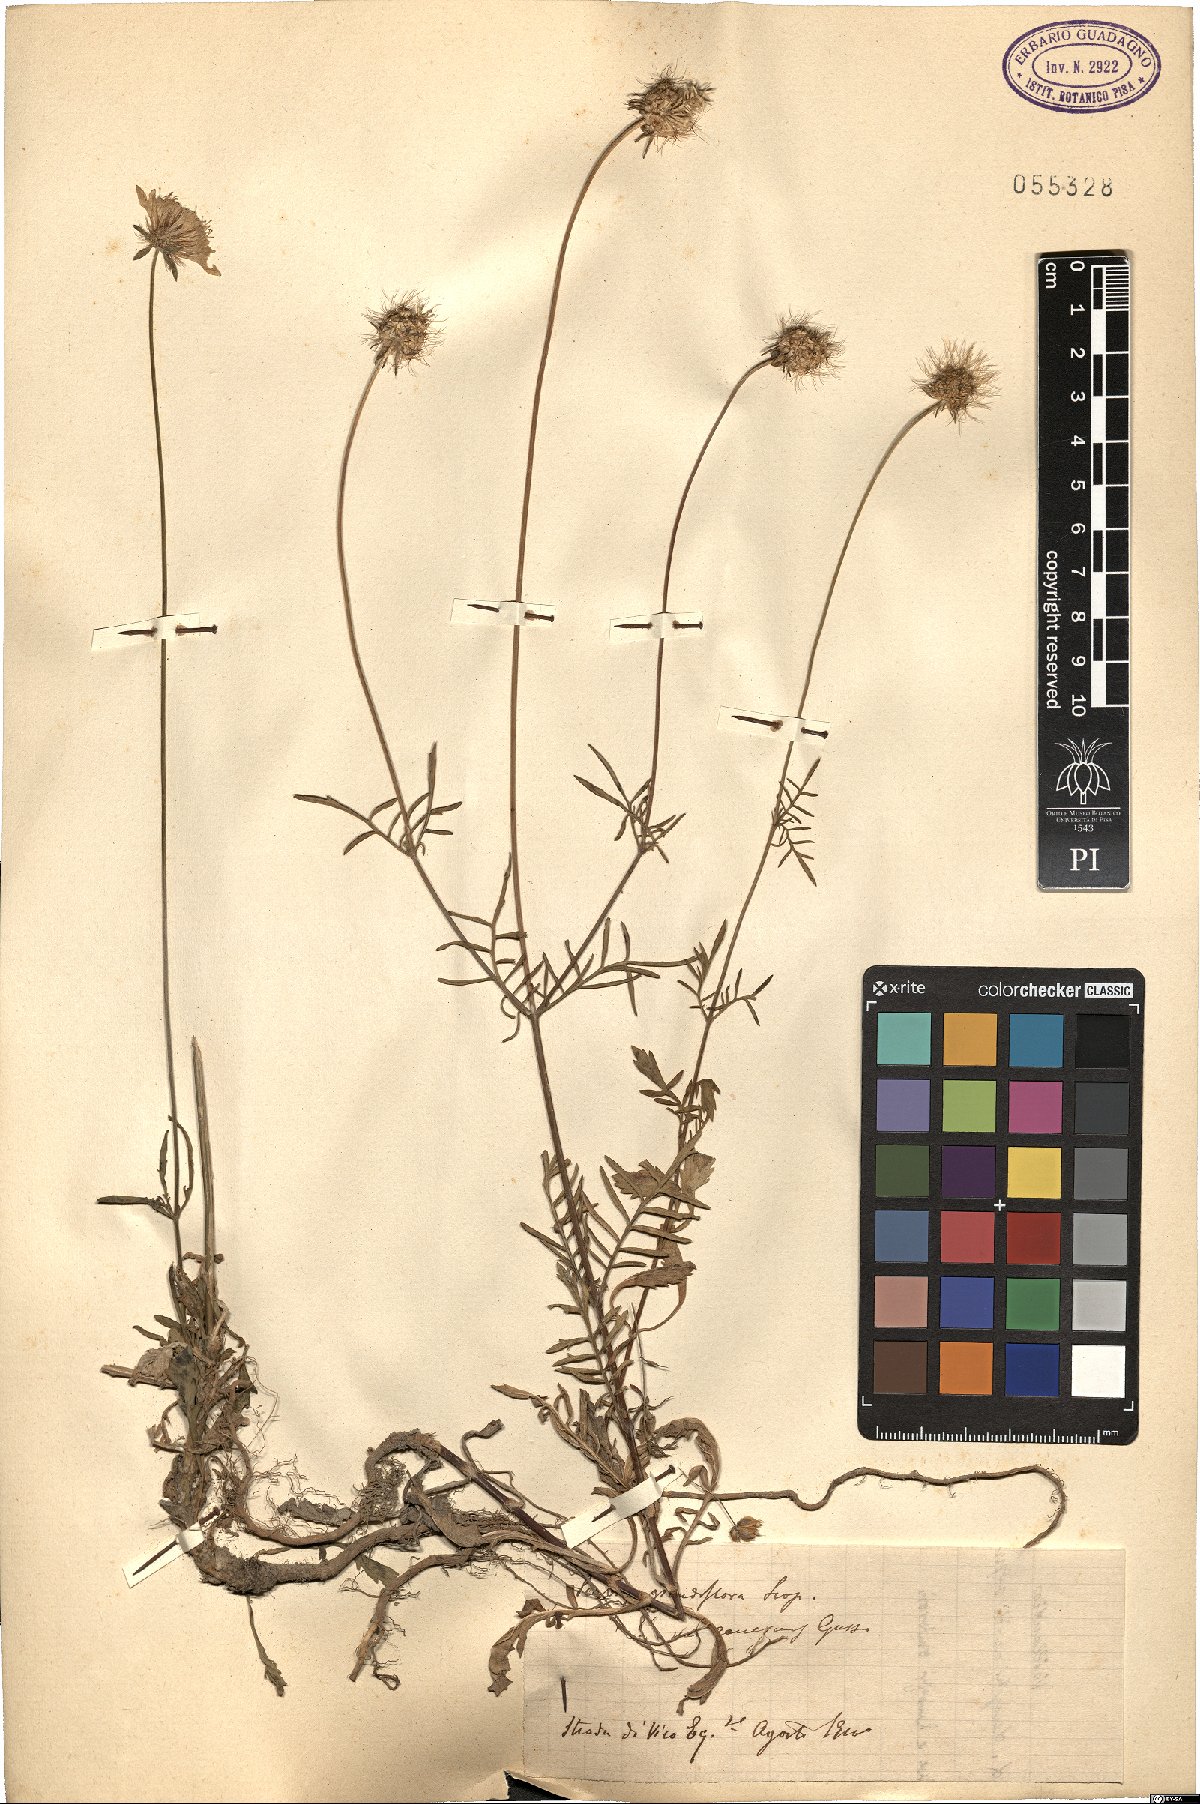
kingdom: Plantae
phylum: Tracheophyta
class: Magnoliopsida
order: Dipsacales
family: Caprifoliaceae
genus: Sixalix
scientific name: Sixalix maritima
